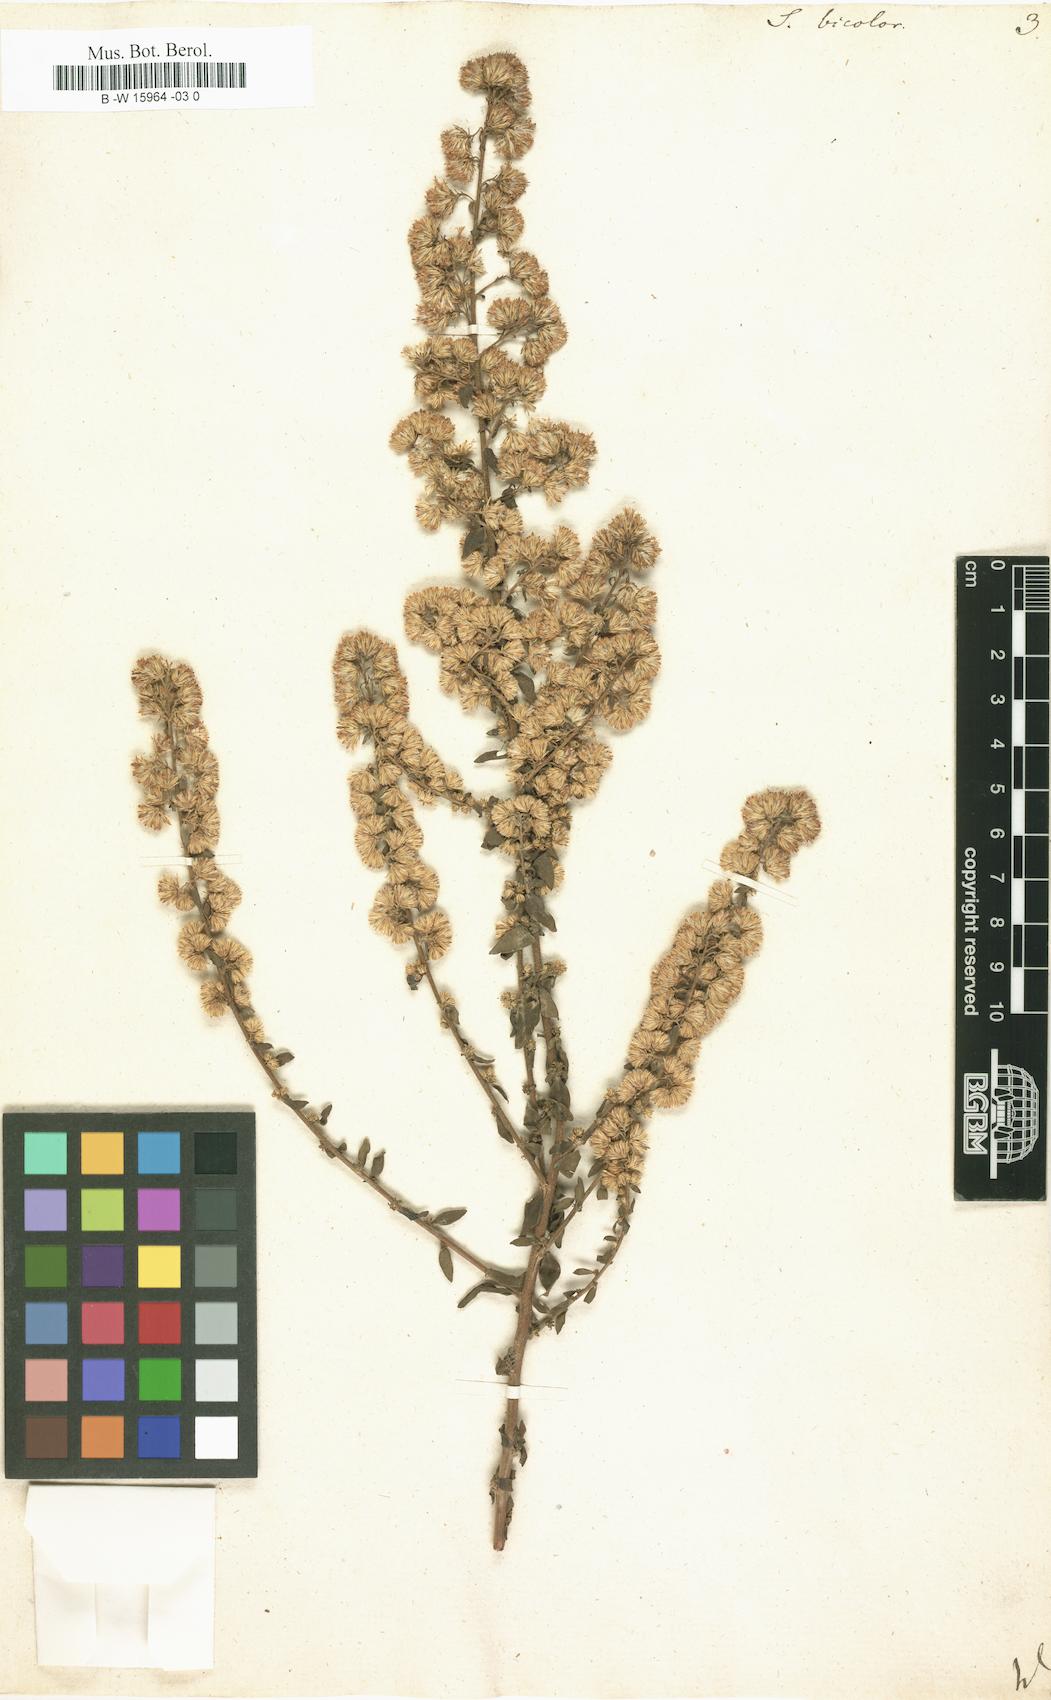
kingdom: Plantae
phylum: Tracheophyta
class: Magnoliopsida
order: Asterales
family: Asteraceae
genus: Solidago
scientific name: Solidago bicolor
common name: Silverrod
